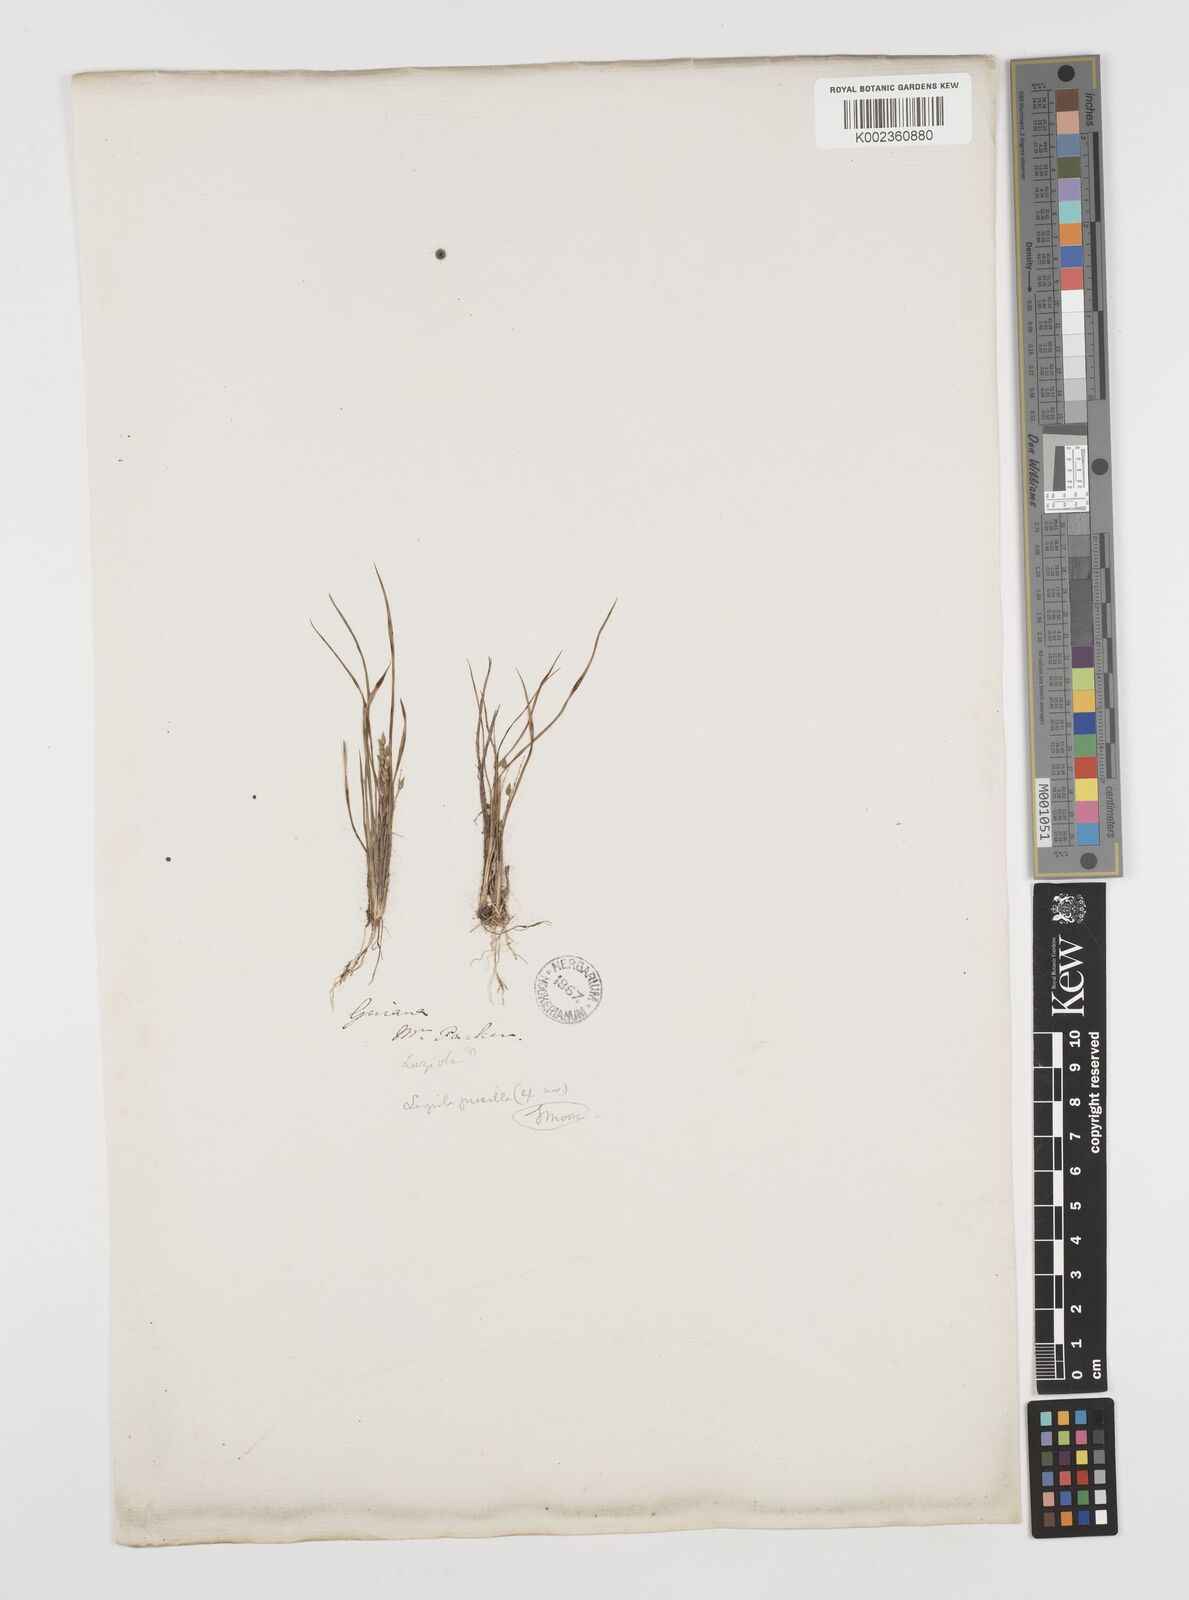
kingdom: Plantae
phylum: Tracheophyta
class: Liliopsida
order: Poales
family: Poaceae
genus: Luziola
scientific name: Luziola bahiensis
